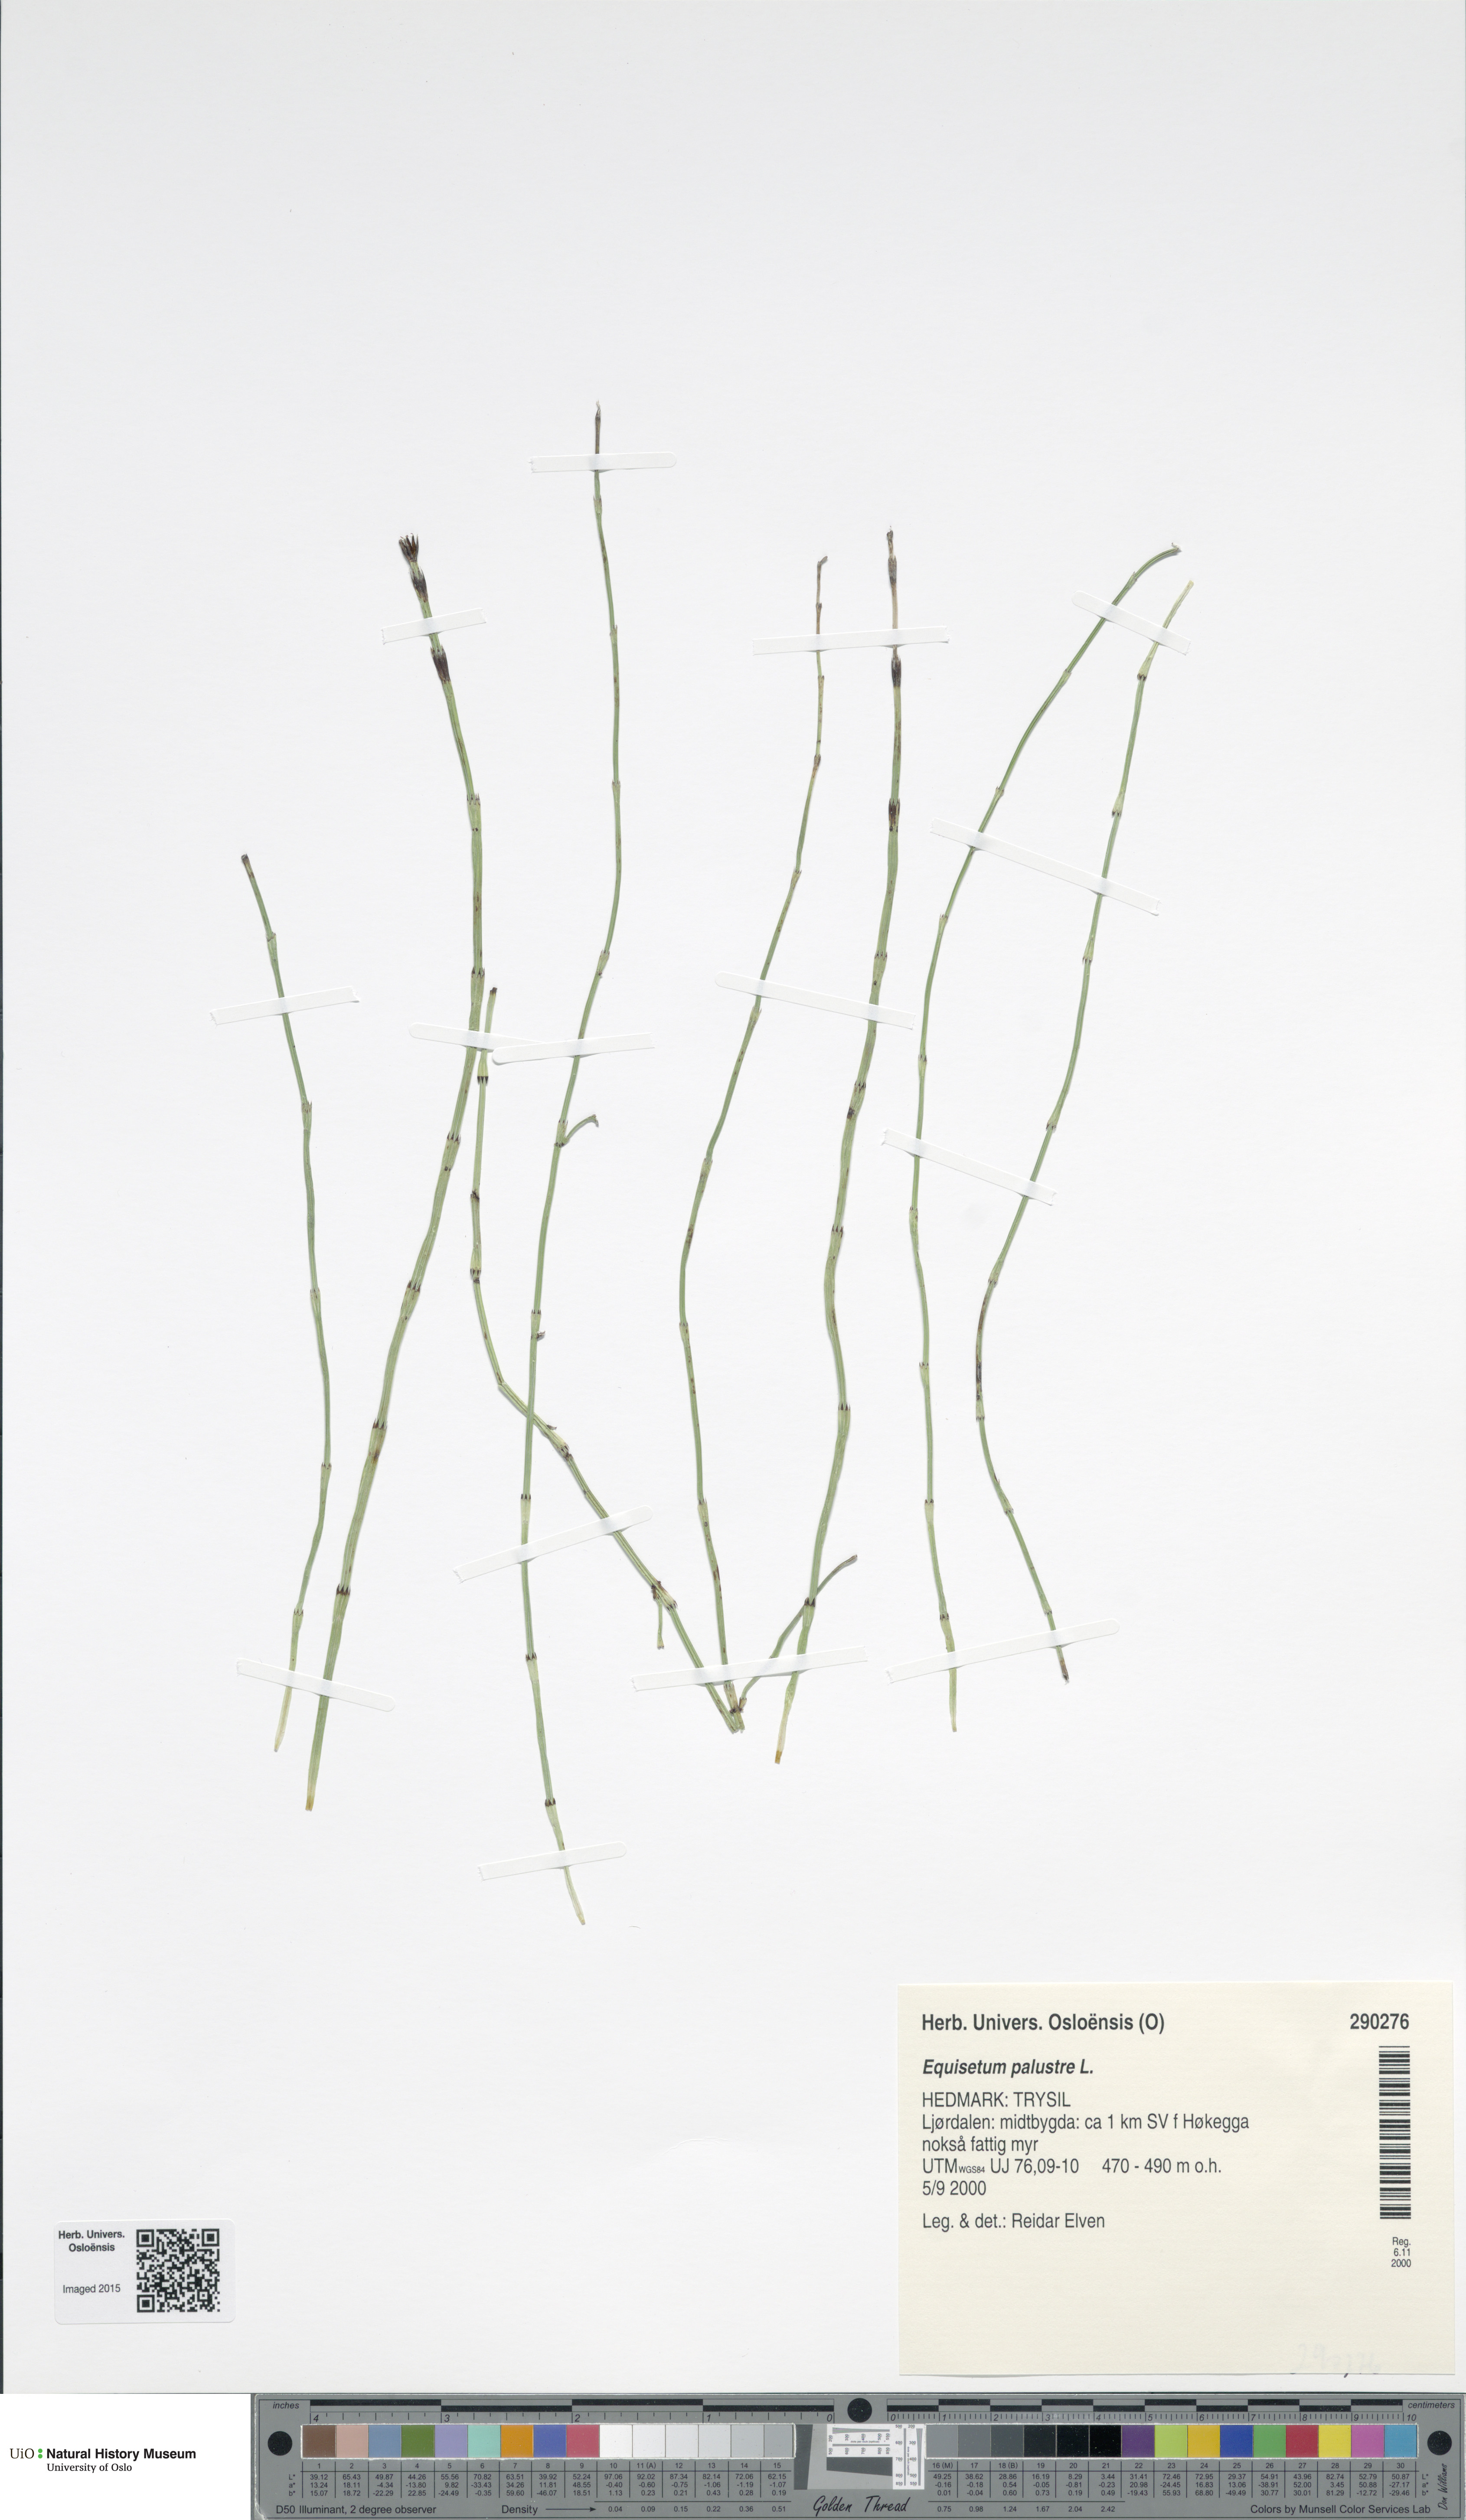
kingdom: Plantae
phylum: Tracheophyta
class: Polypodiopsida
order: Equisetales
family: Equisetaceae
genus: Equisetum
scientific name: Equisetum palustre
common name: Marsh horsetail
